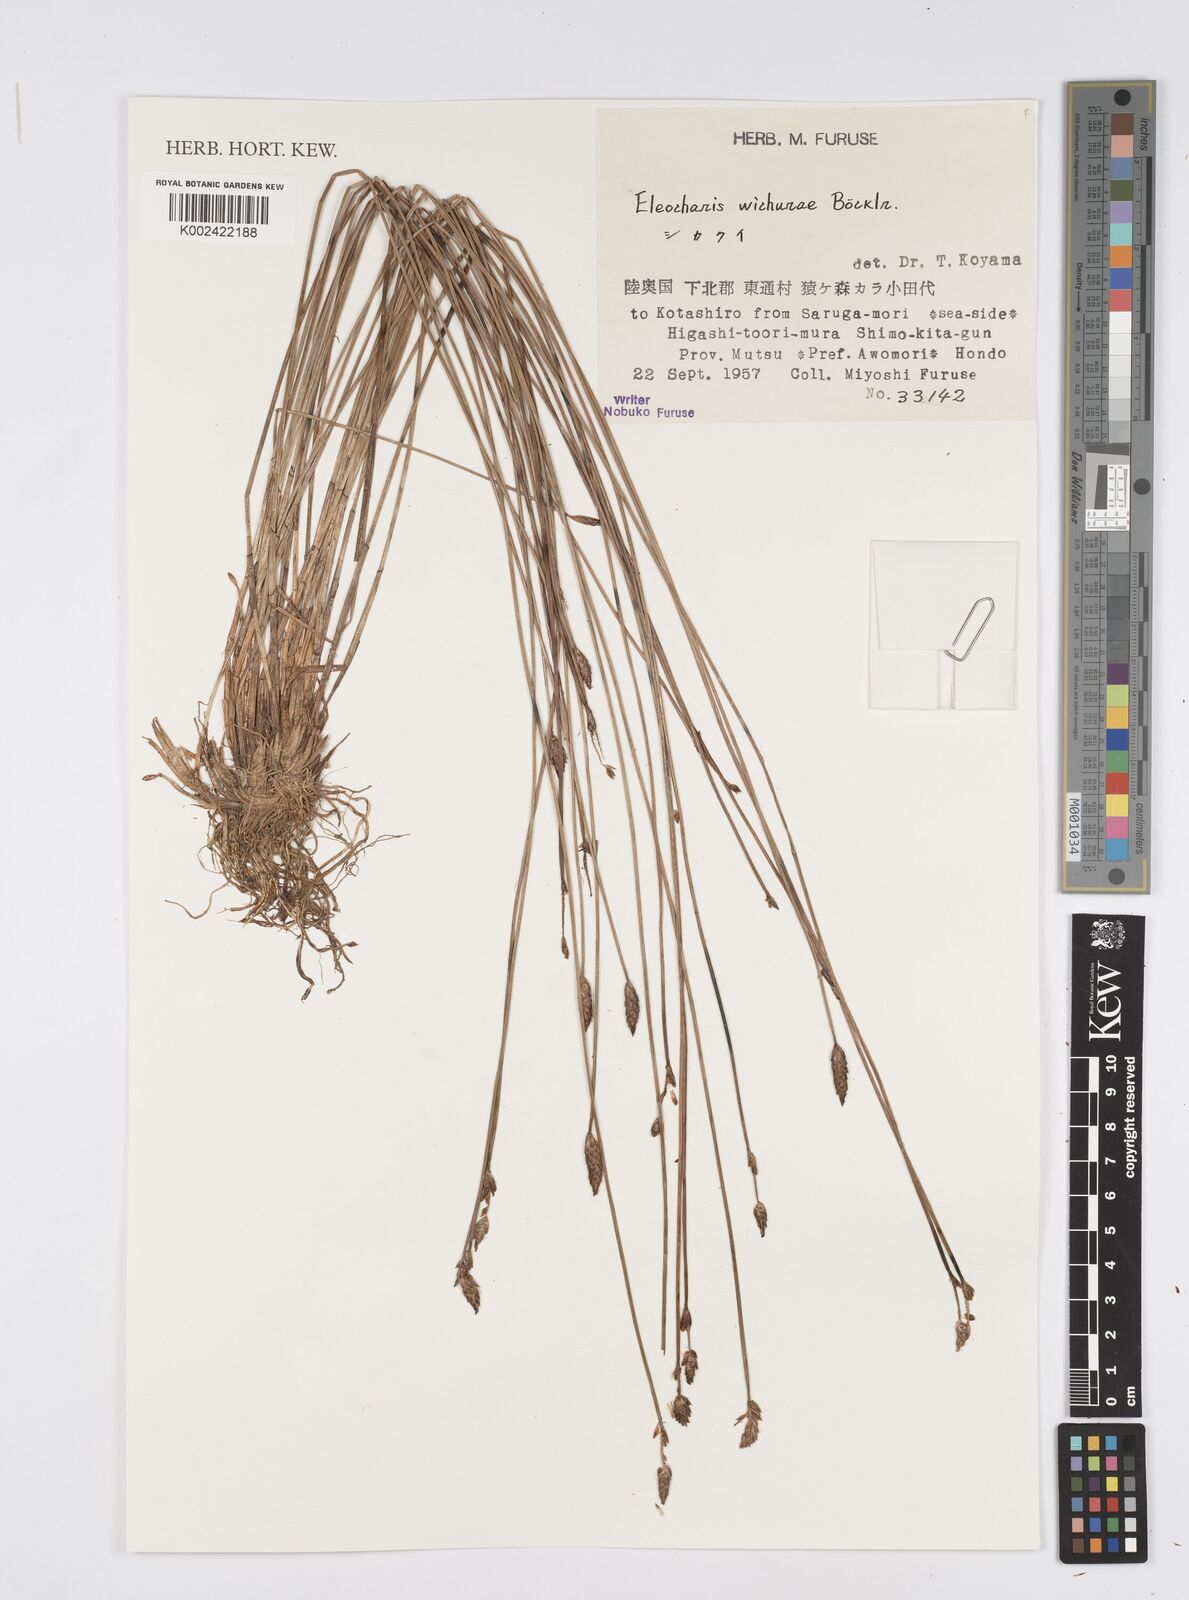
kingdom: Plantae
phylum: Tracheophyta
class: Liliopsida
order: Poales
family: Cyperaceae
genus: Eleocharis
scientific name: Eleocharis tetraquetra
